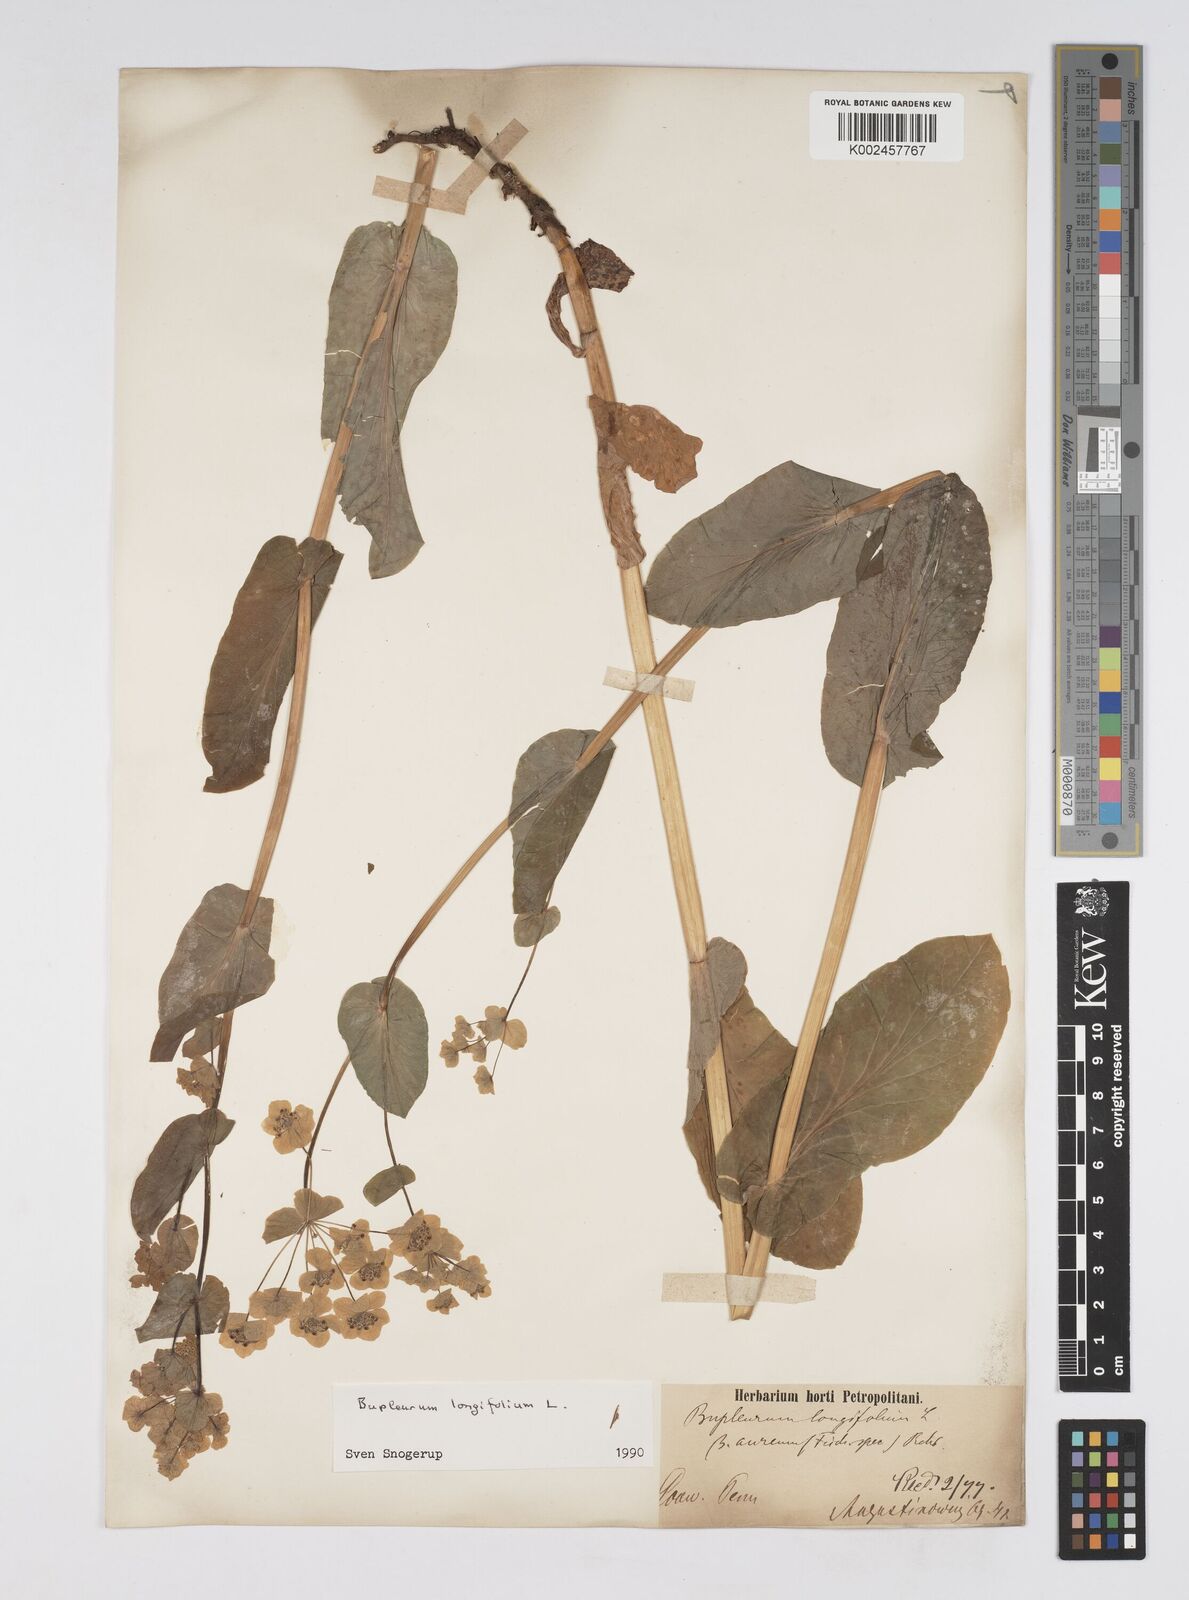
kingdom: Plantae
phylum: Tracheophyta
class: Magnoliopsida
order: Apiales
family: Apiaceae
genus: Bupleurum
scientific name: Bupleurum longifolium
